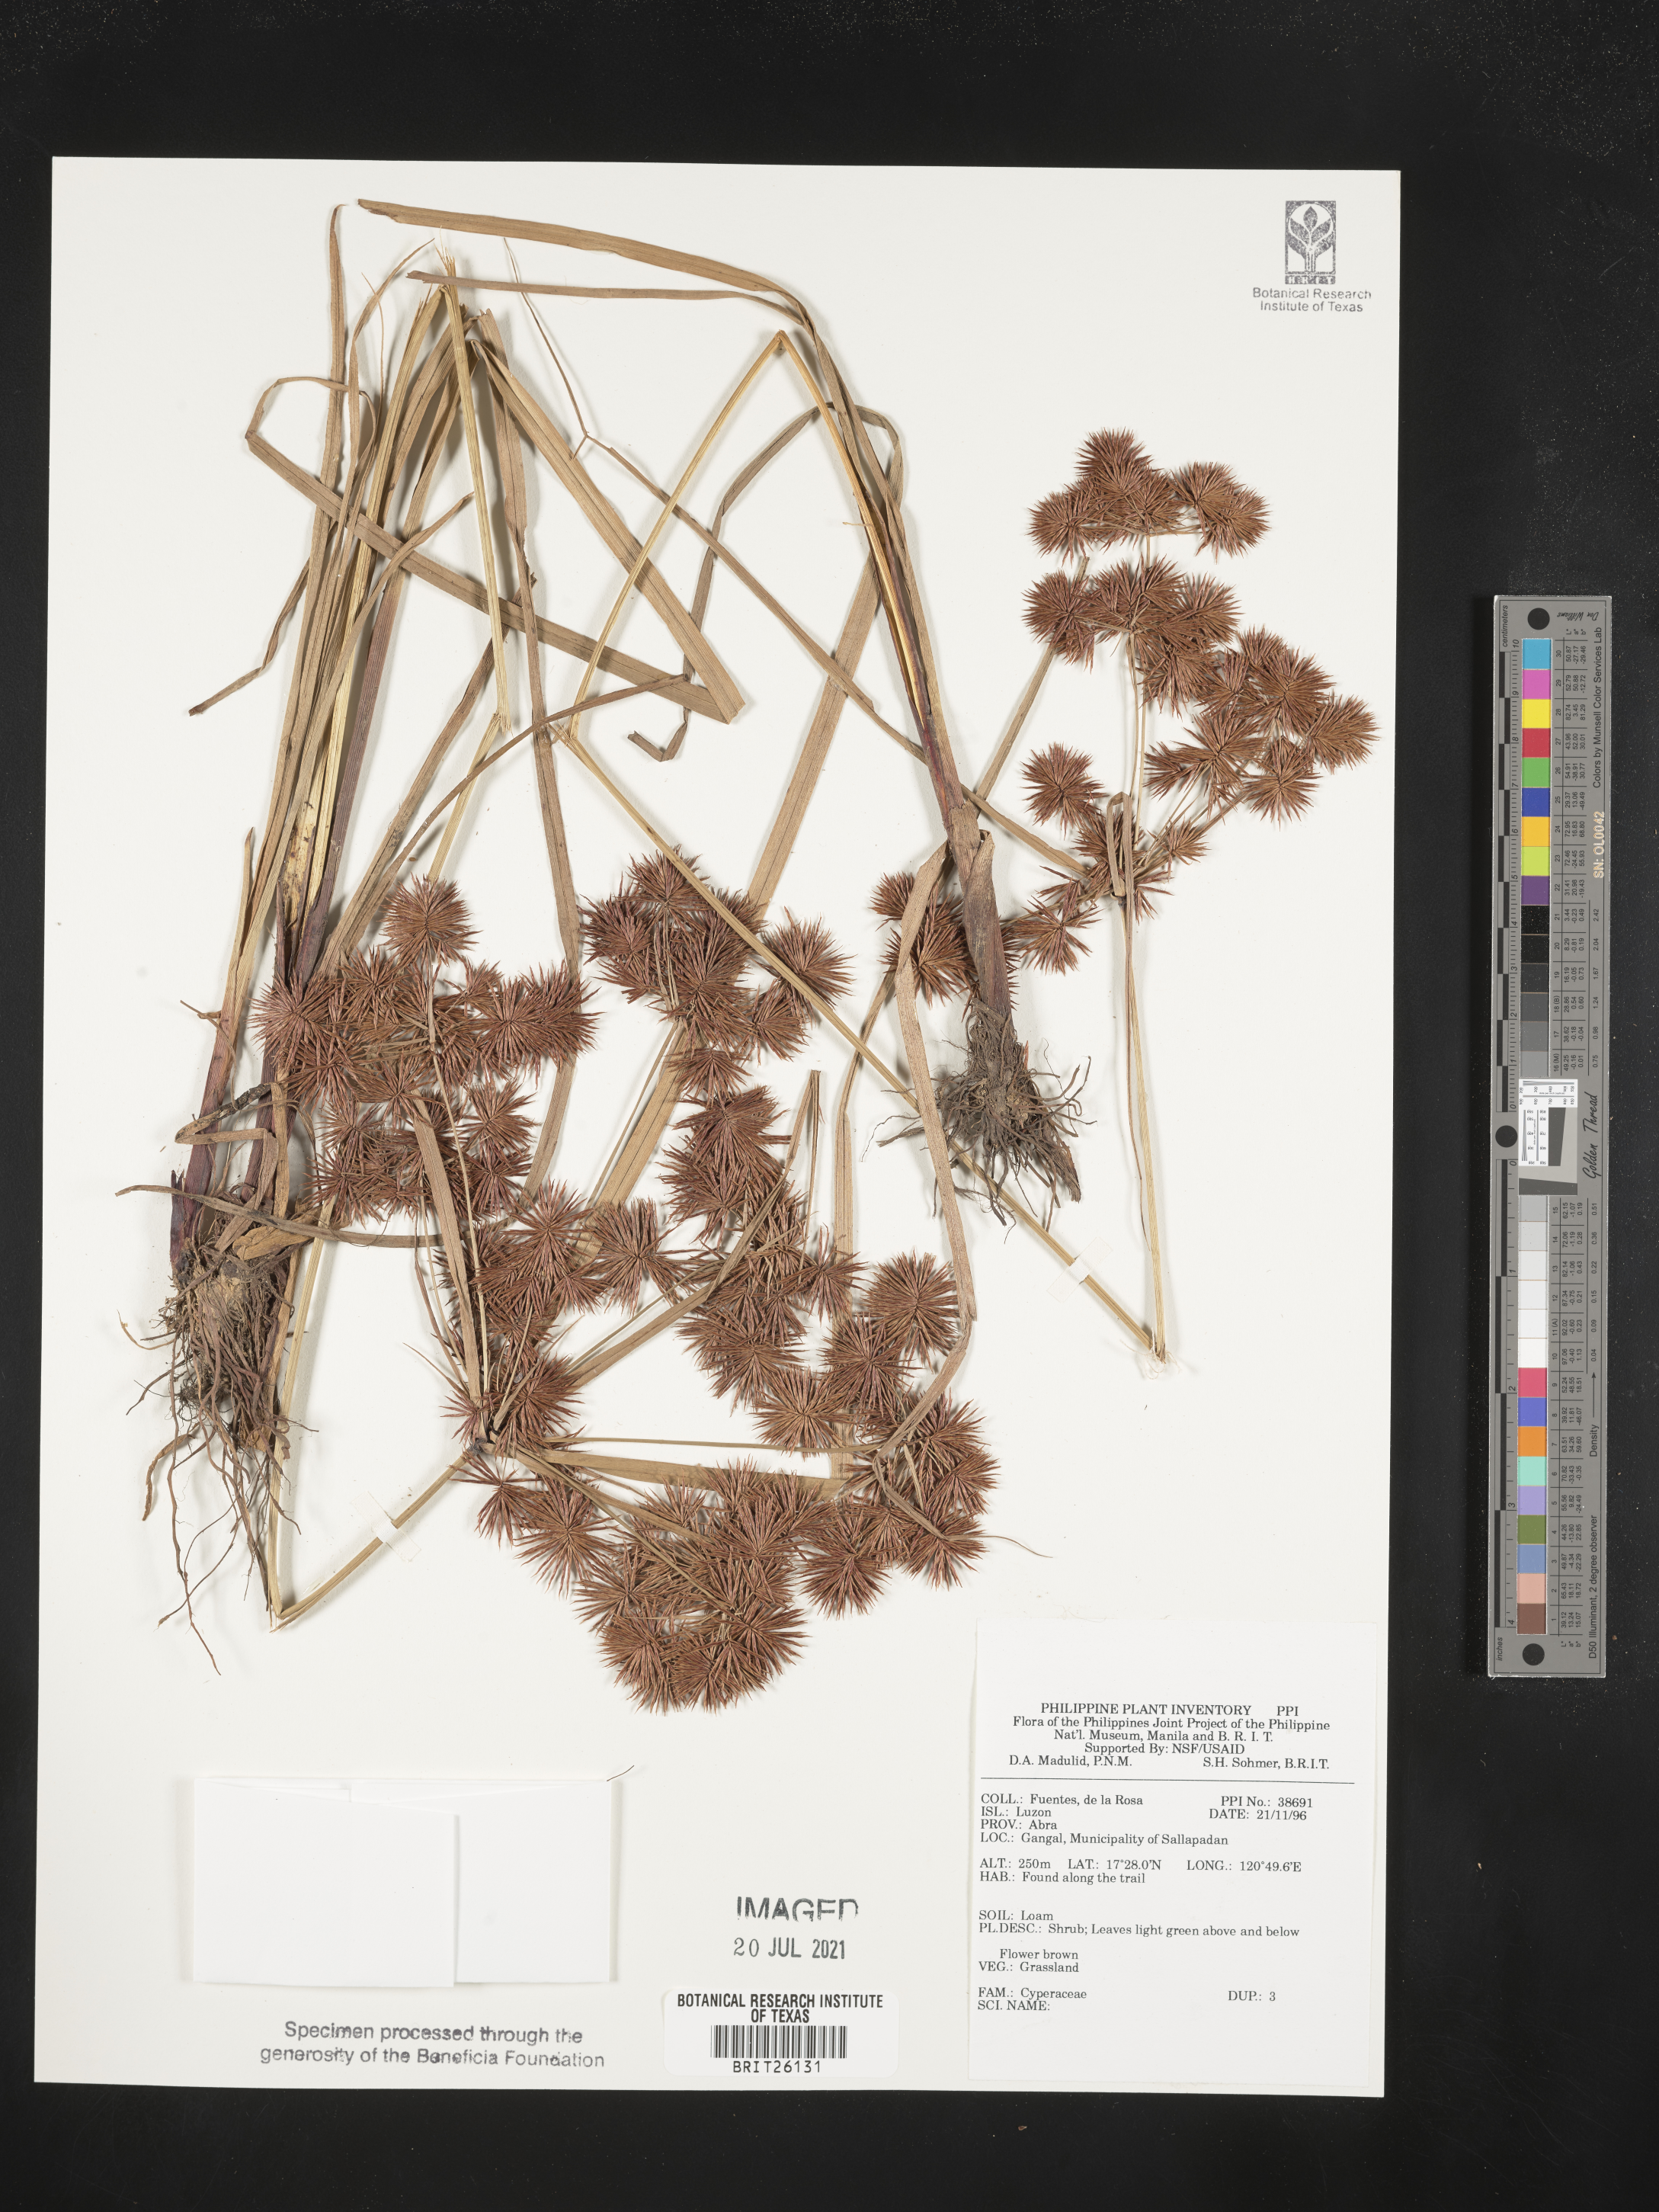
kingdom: Plantae
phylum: Tracheophyta
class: Liliopsida
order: Poales
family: Cyperaceae
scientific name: Cyperaceae
